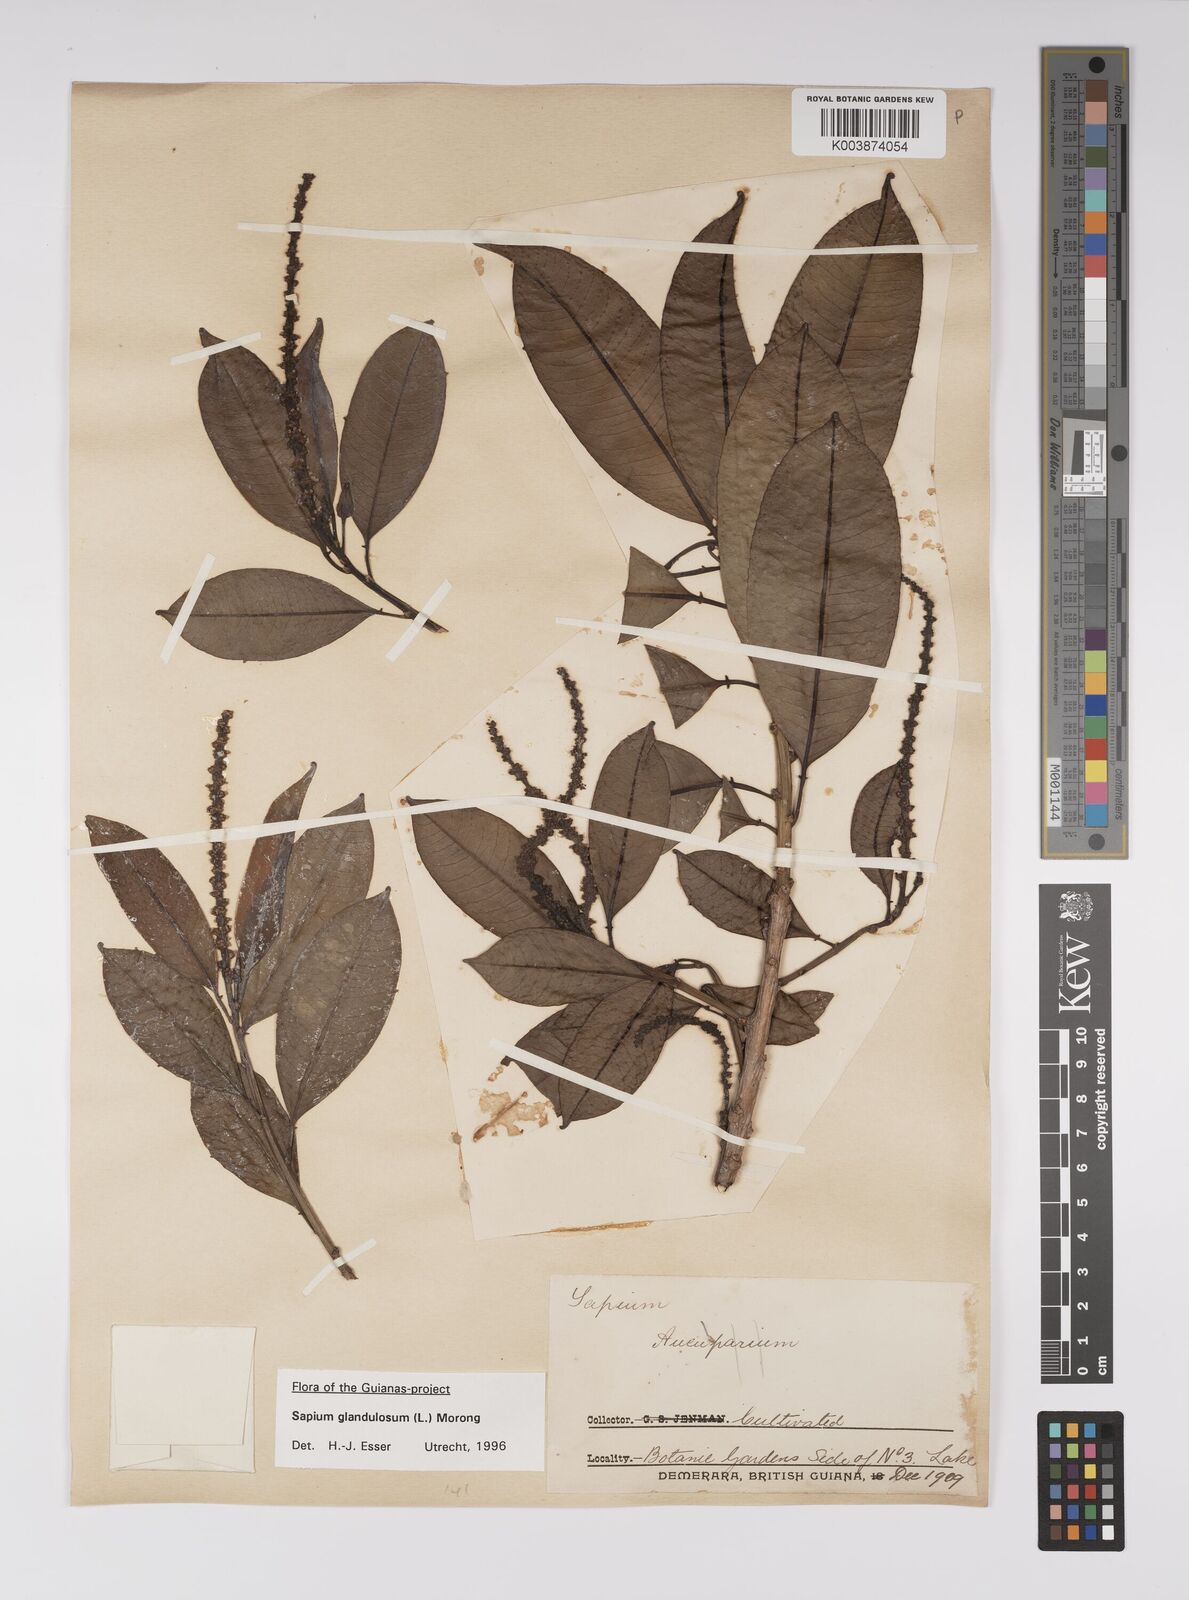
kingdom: Plantae
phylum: Tracheophyta
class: Magnoliopsida
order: Malpighiales
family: Euphorbiaceae
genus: Sapium
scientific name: Sapium glandulosum
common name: Milktree
